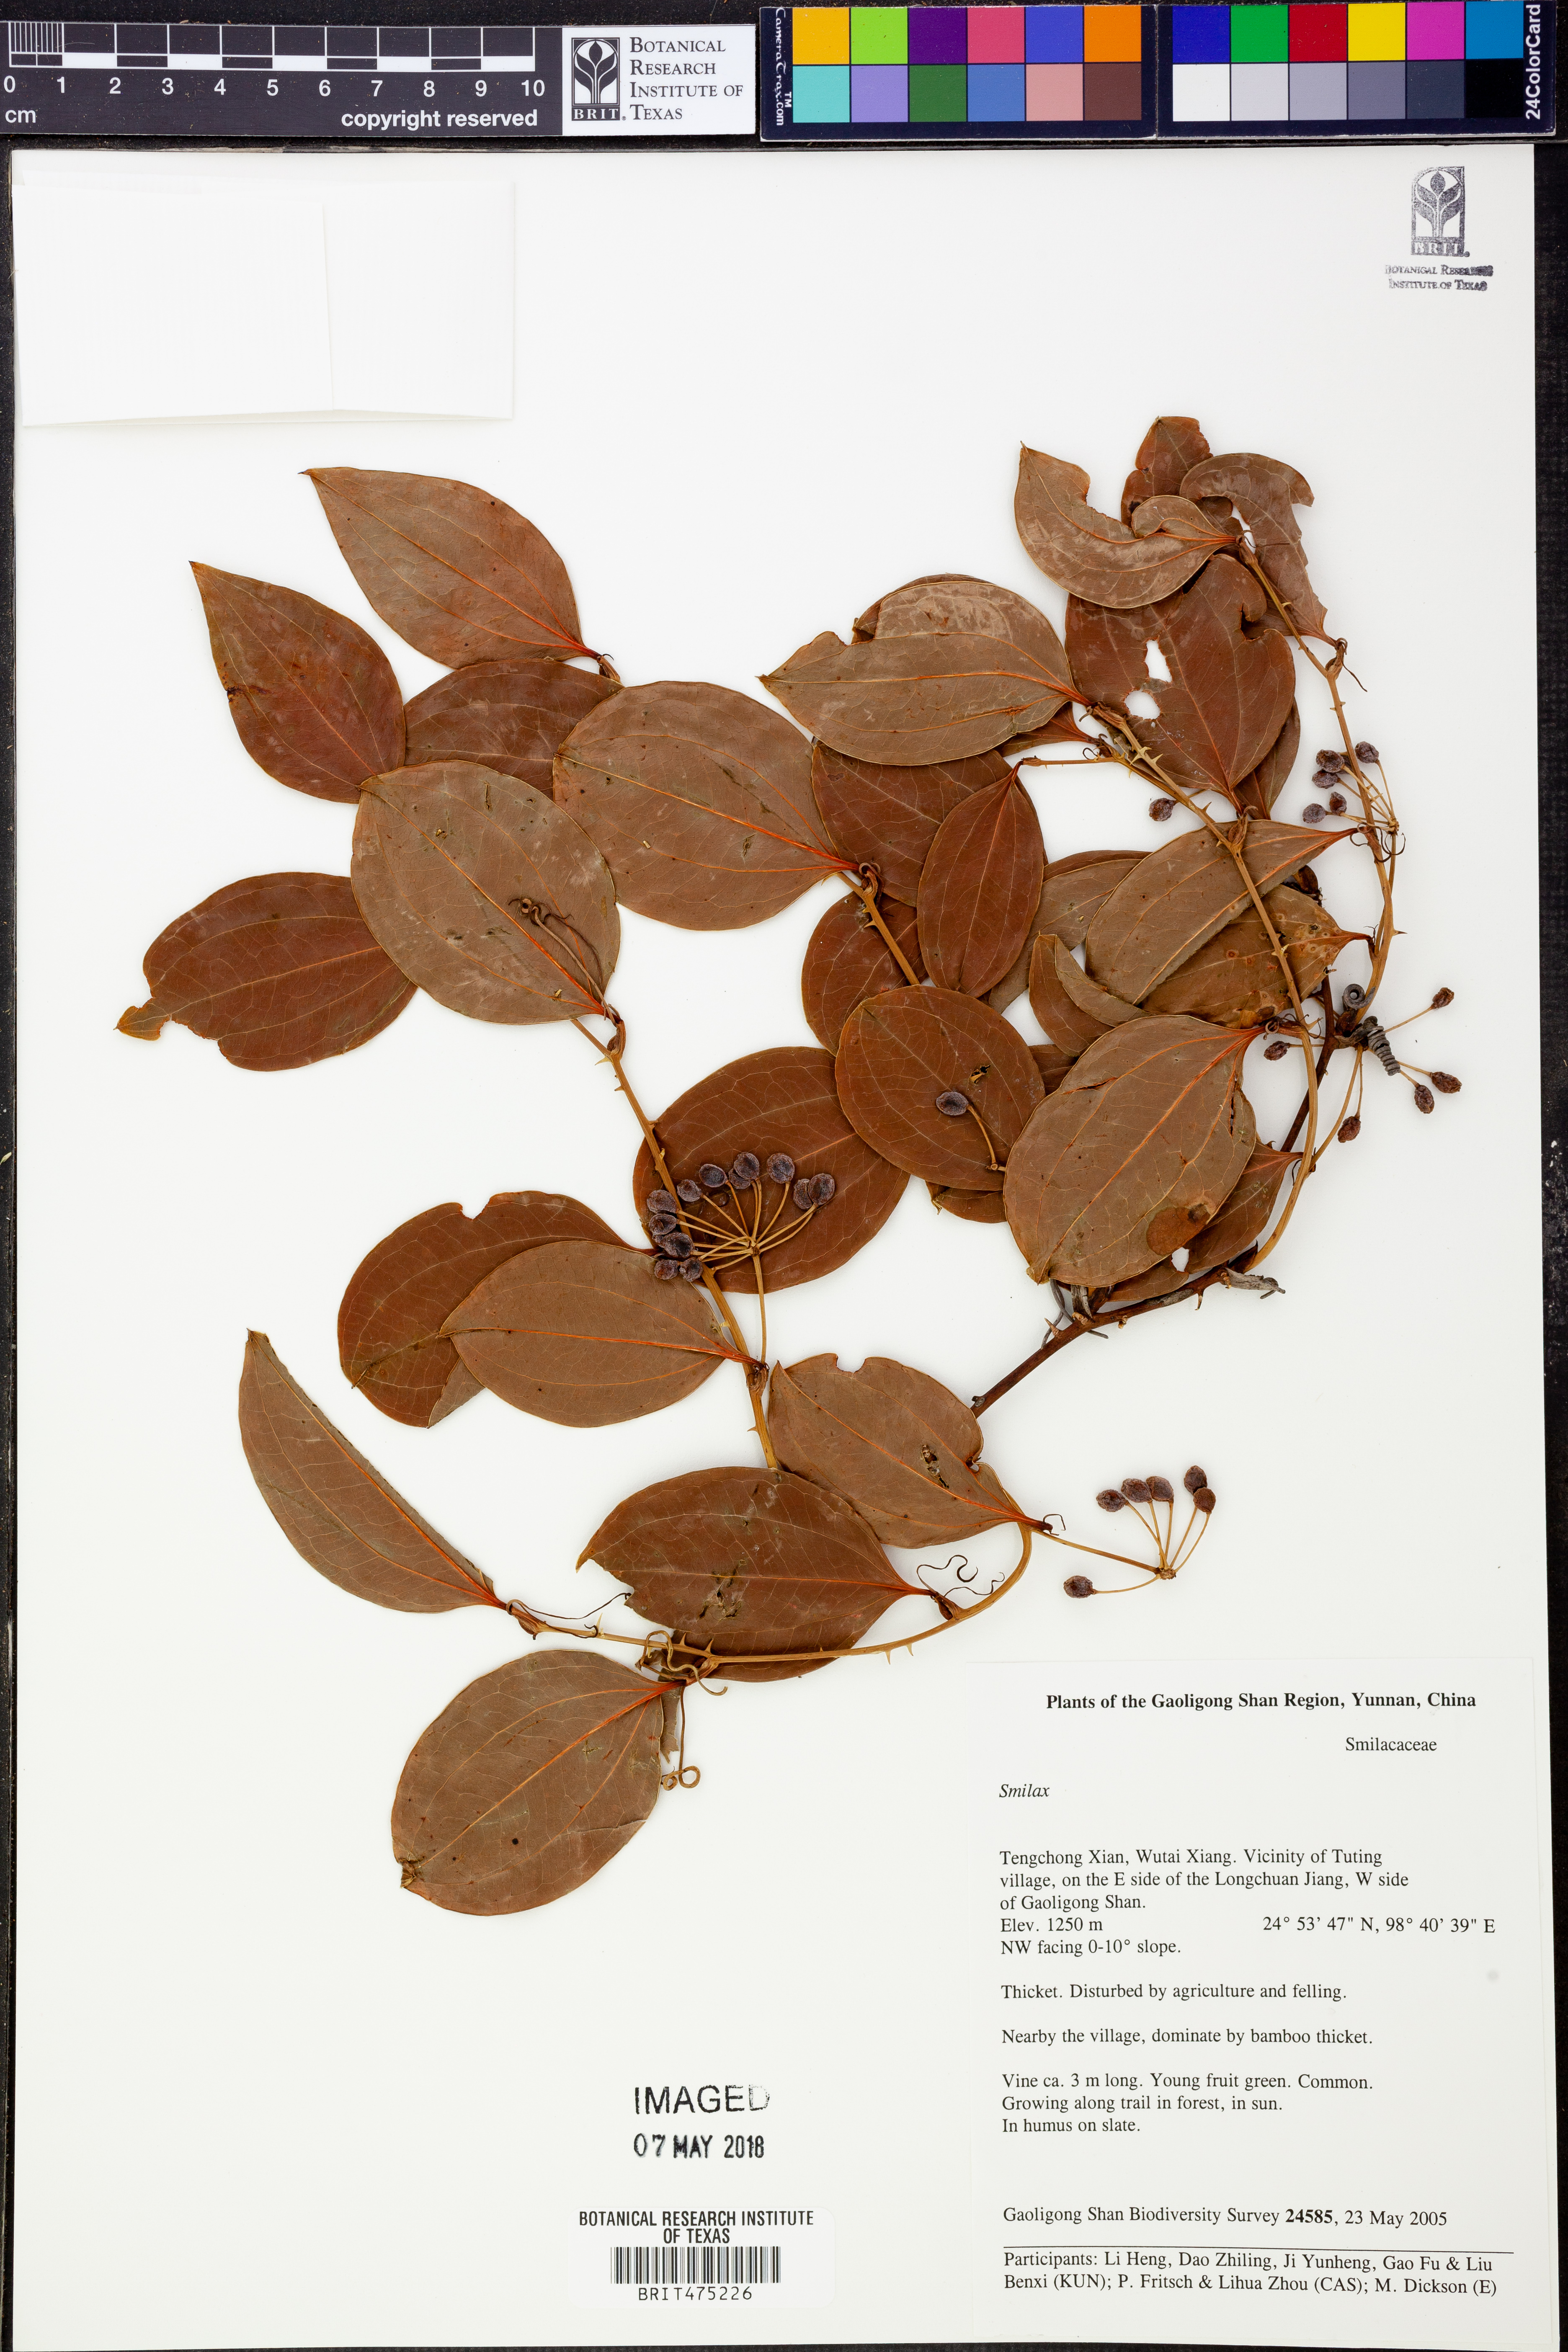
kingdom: Plantae
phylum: Tracheophyta
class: Liliopsida
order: Liliales
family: Smilacaceae
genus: Smilax
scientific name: Smilax
